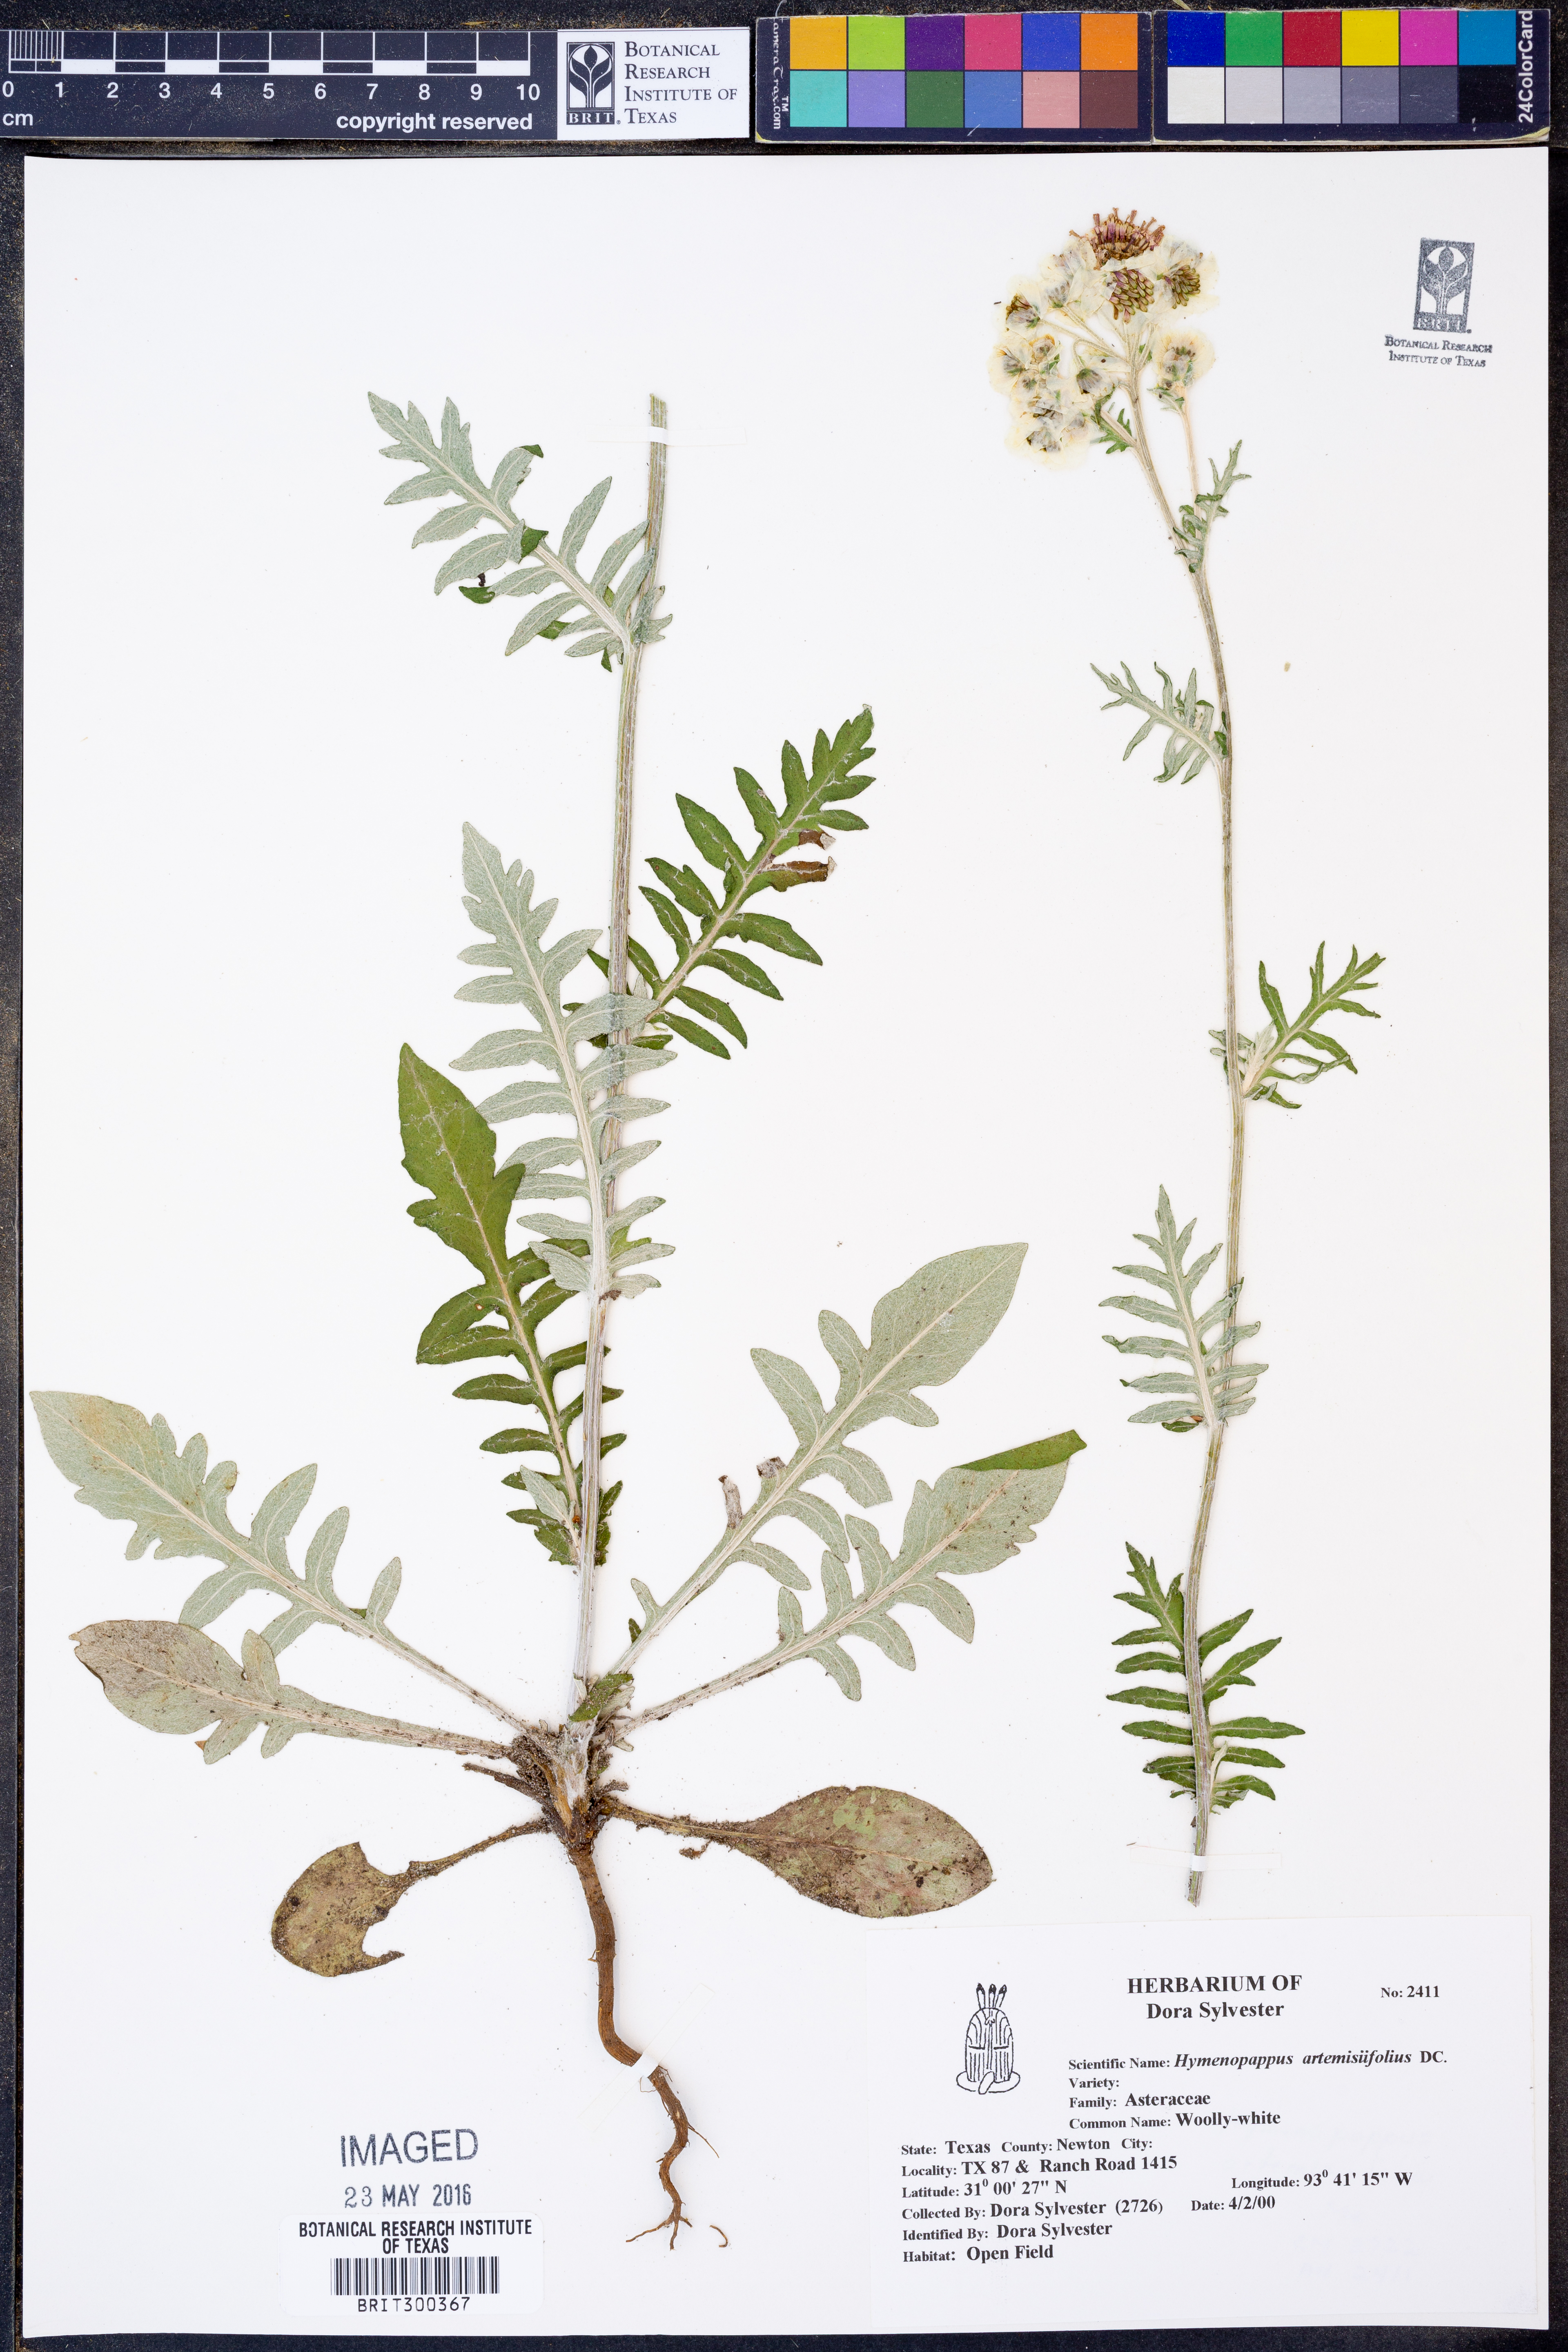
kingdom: Plantae
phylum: Tracheophyta
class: Magnoliopsida
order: Asterales
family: Asteraceae
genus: Hymenopappus
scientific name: Hymenopappus artemisiifolius
